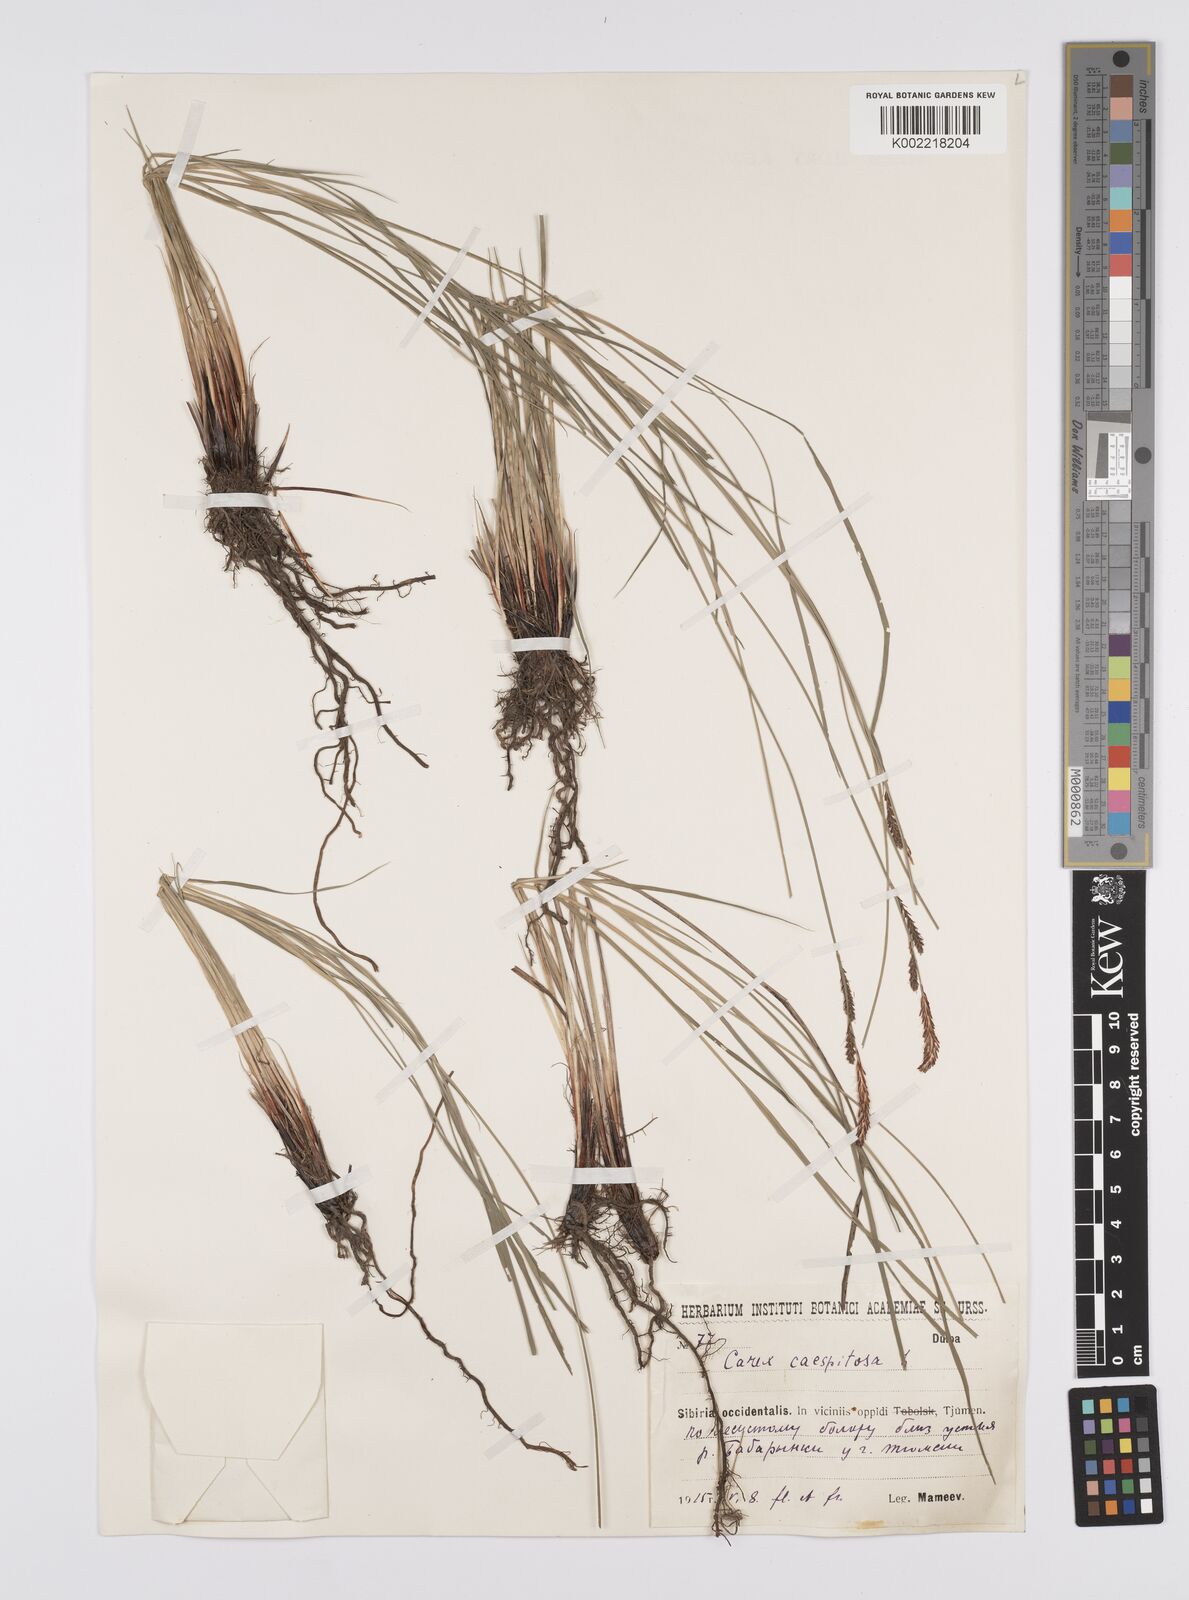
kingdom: Plantae
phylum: Tracheophyta
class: Liliopsida
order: Poales
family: Cyperaceae
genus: Carex
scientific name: Carex
